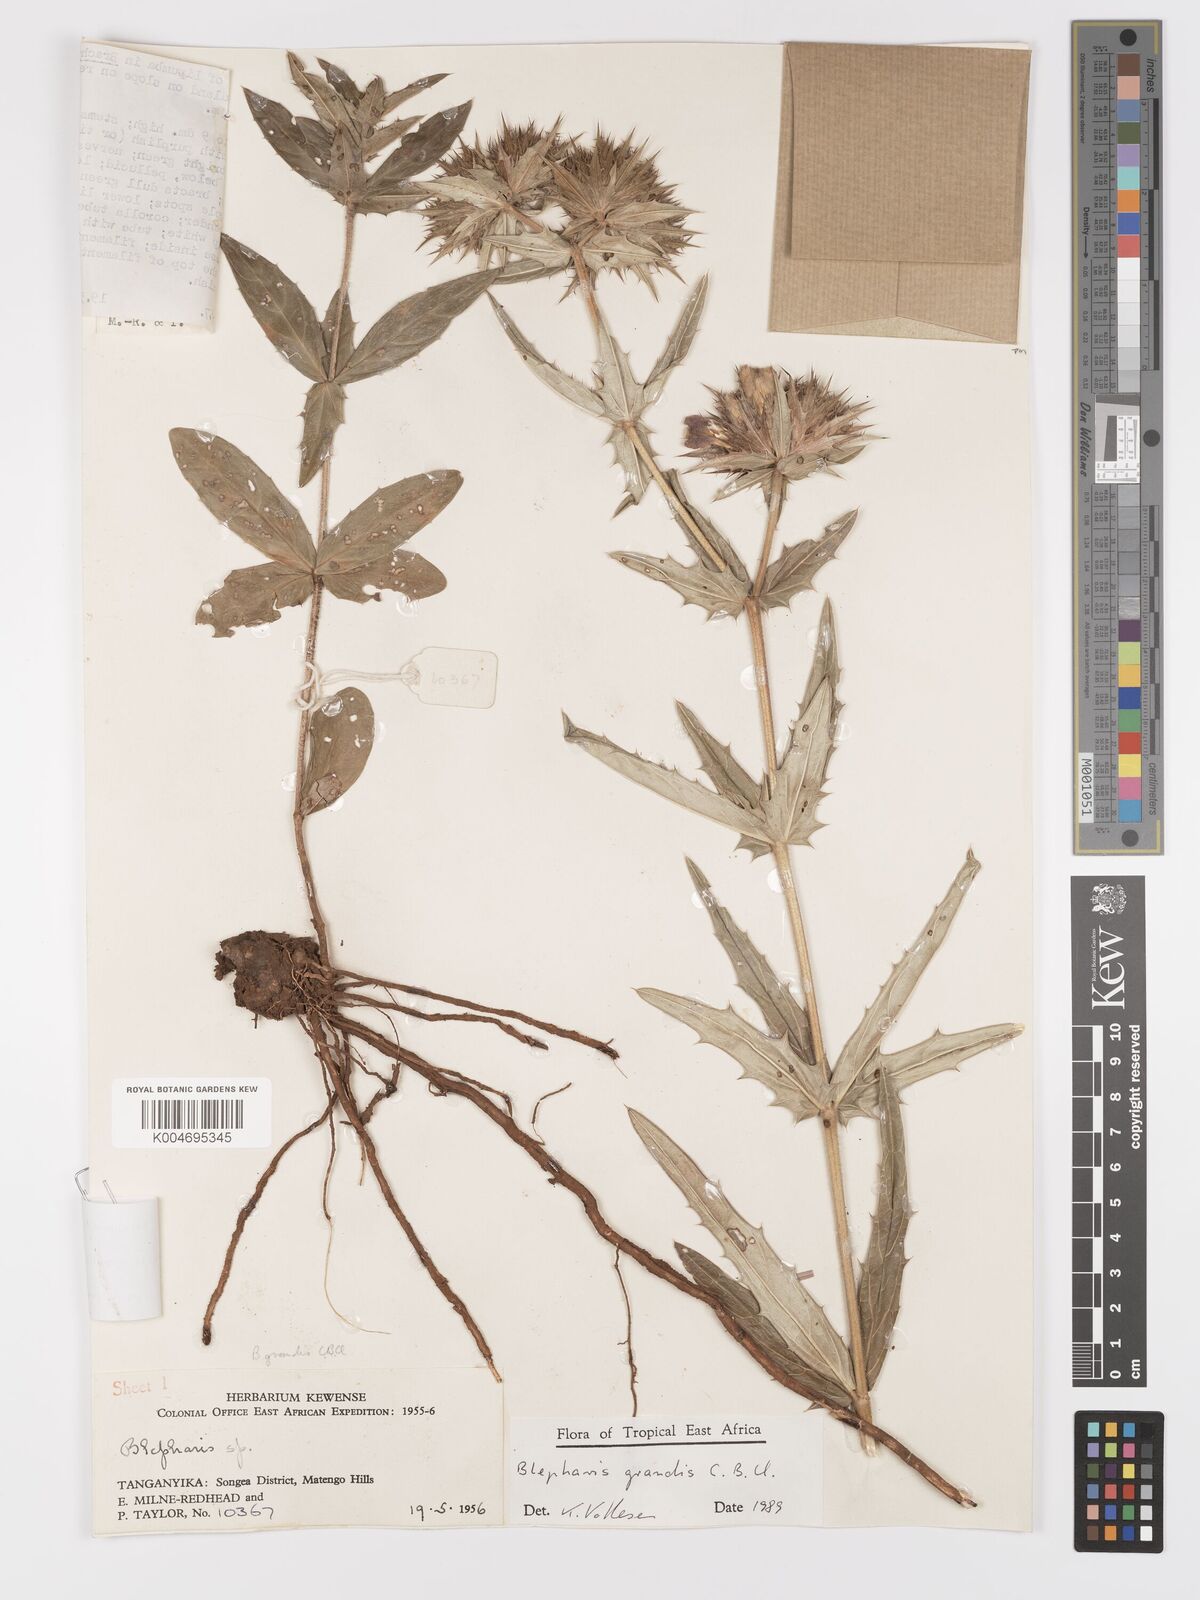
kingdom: Plantae
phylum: Tracheophyta
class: Magnoliopsida
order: Lamiales
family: Acanthaceae
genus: Blepharis
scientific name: Blepharis grandis
